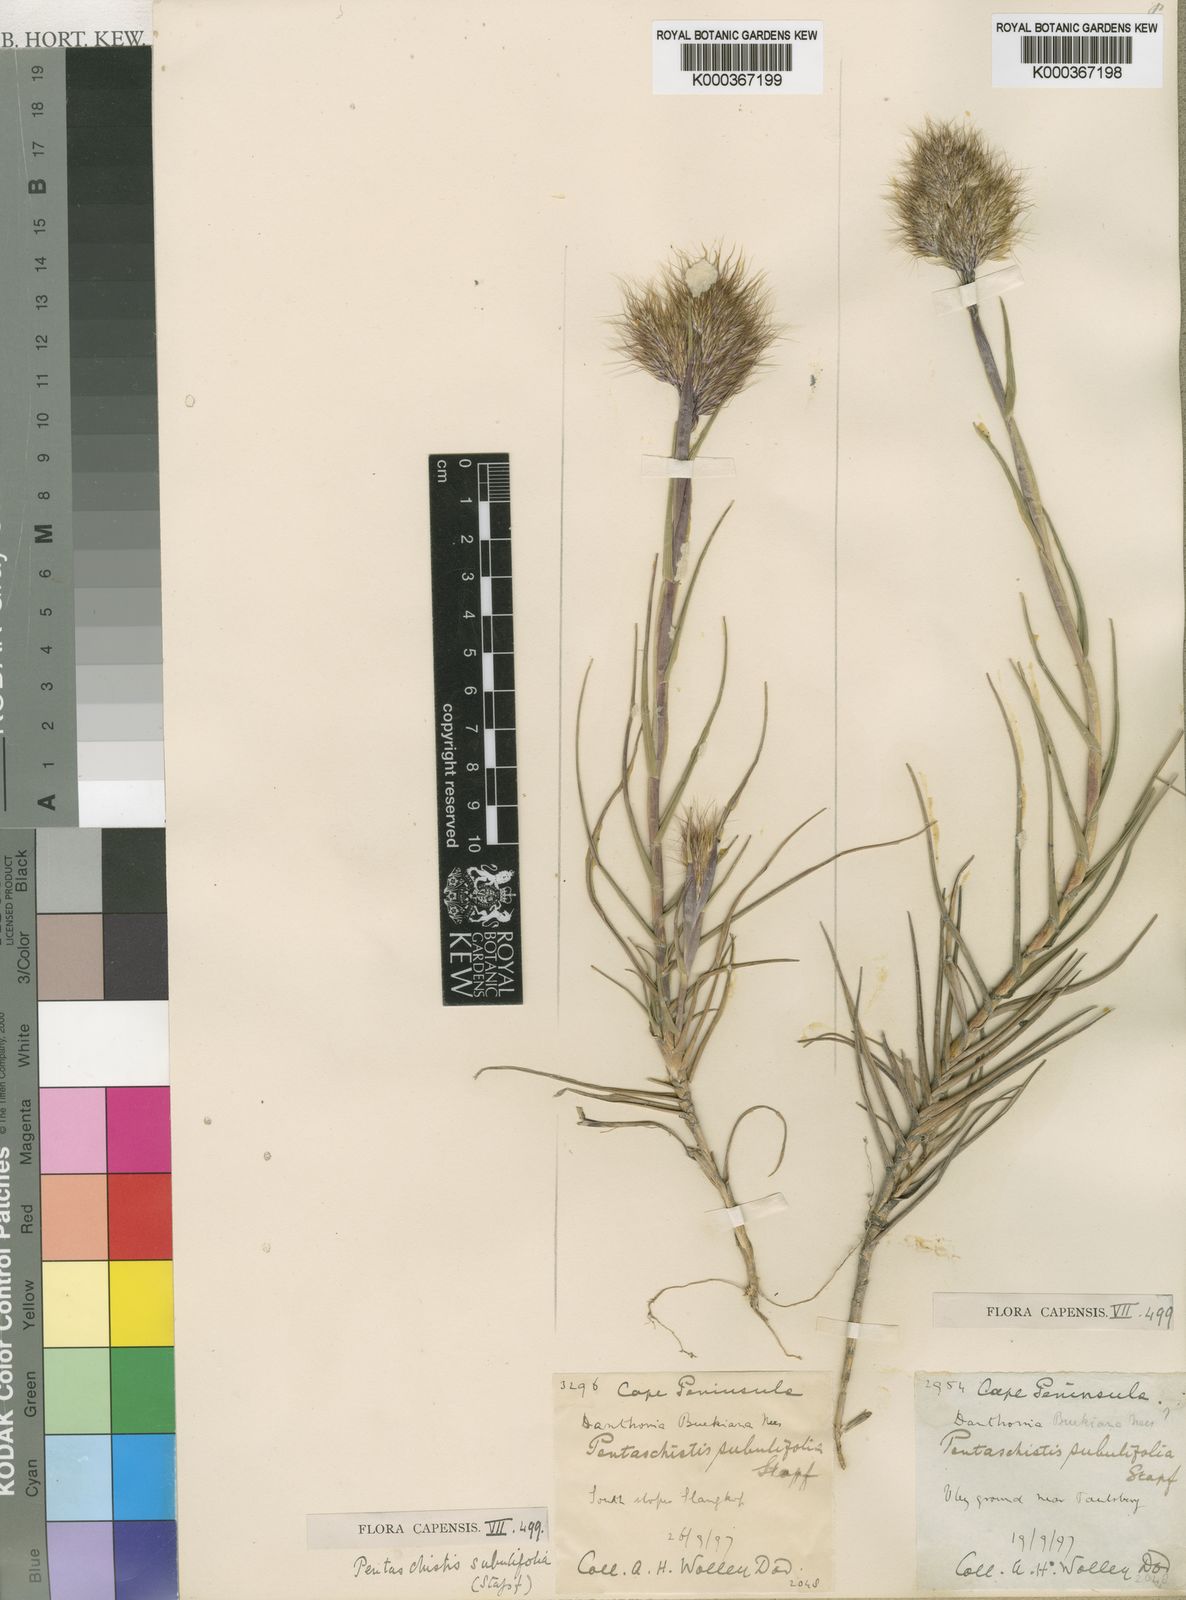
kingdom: Plantae
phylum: Tracheophyta
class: Liliopsida
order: Poales
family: Poaceae
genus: Pentameris
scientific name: Pentameris scabra
